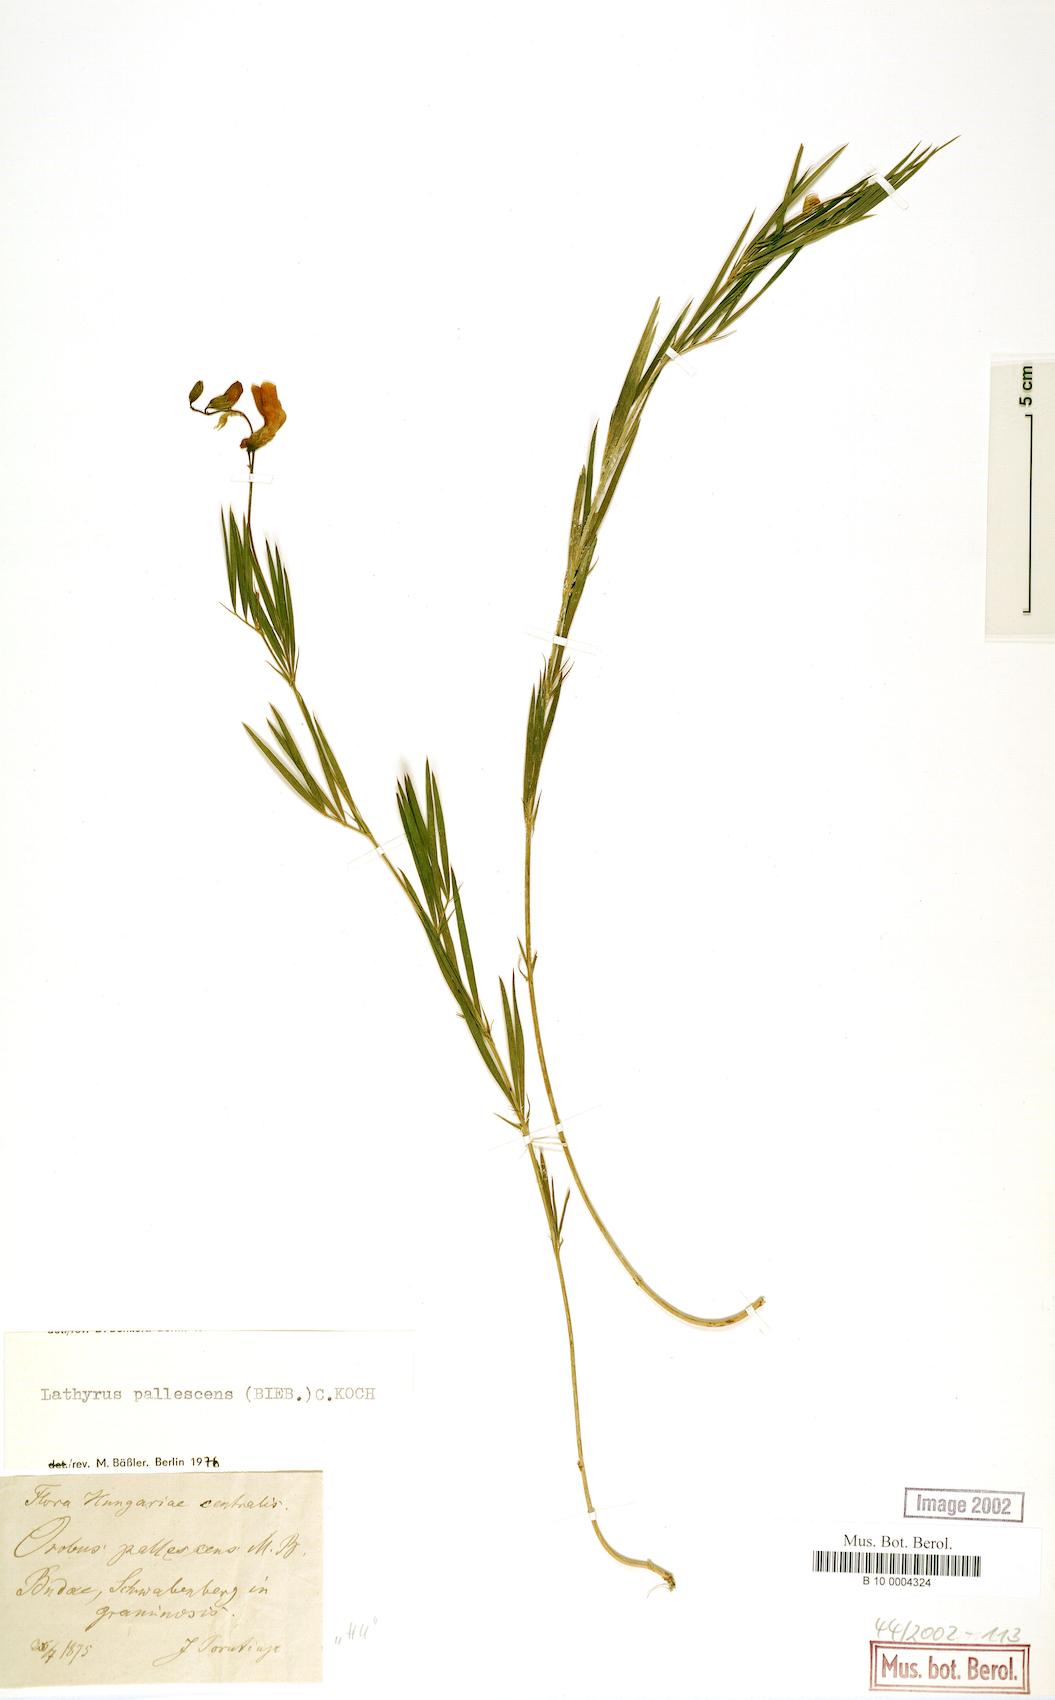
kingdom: Plantae
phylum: Tracheophyta
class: Magnoliopsida
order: Fabales
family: Fabaceae
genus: Lathyrus
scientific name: Lathyrus pallescens
